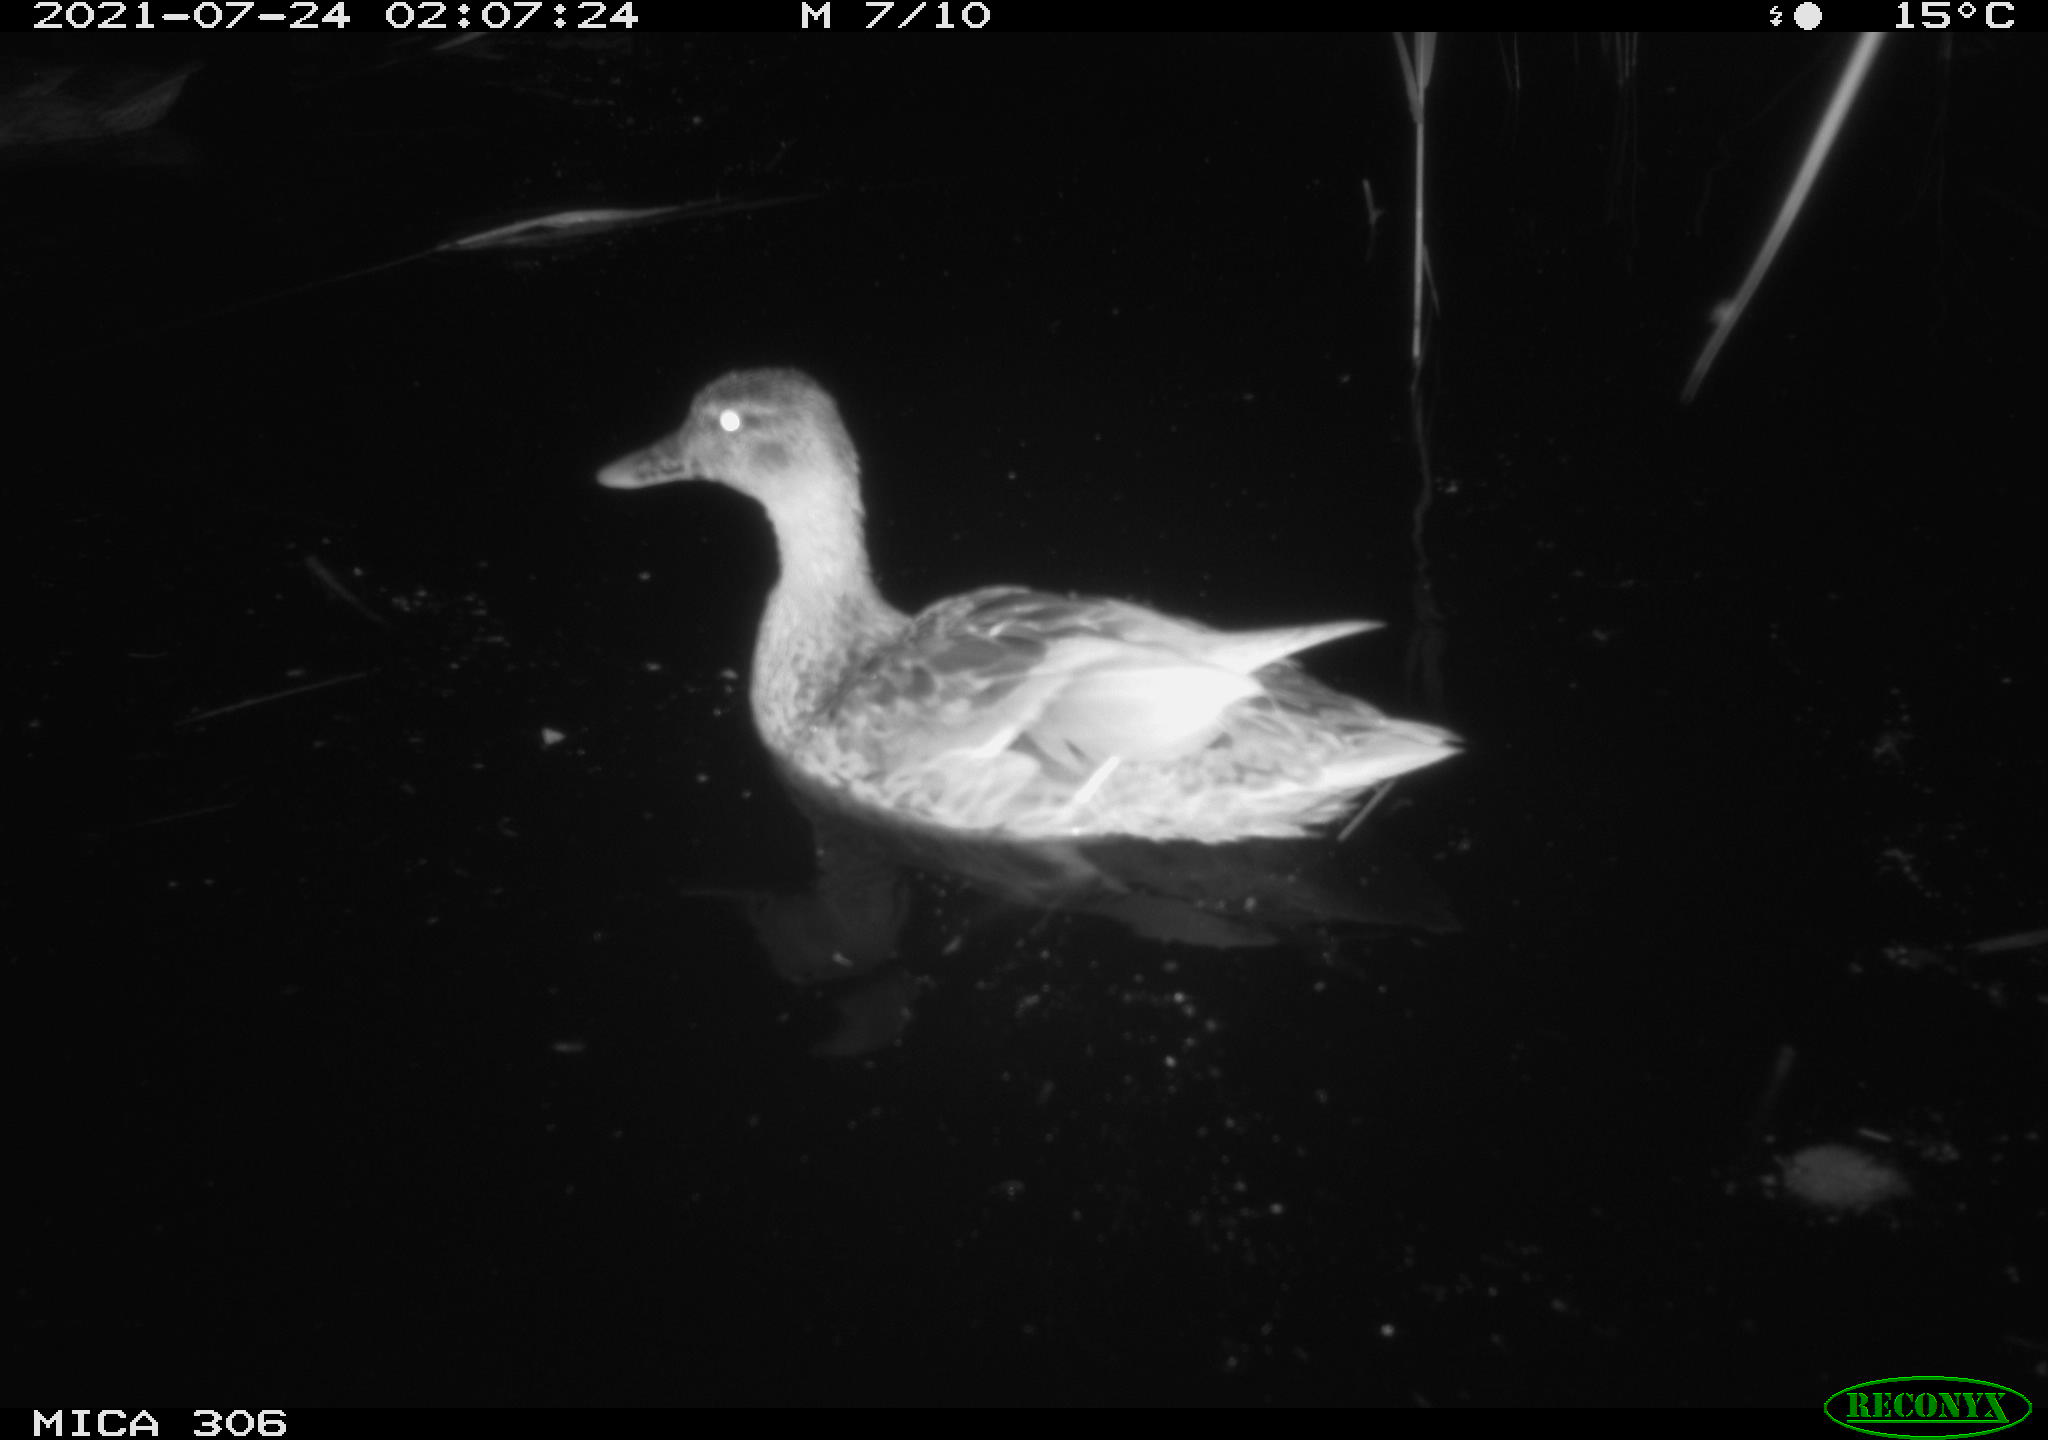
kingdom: Animalia
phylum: Chordata
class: Aves
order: Anseriformes
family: Anatidae
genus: Anas
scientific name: Anas
